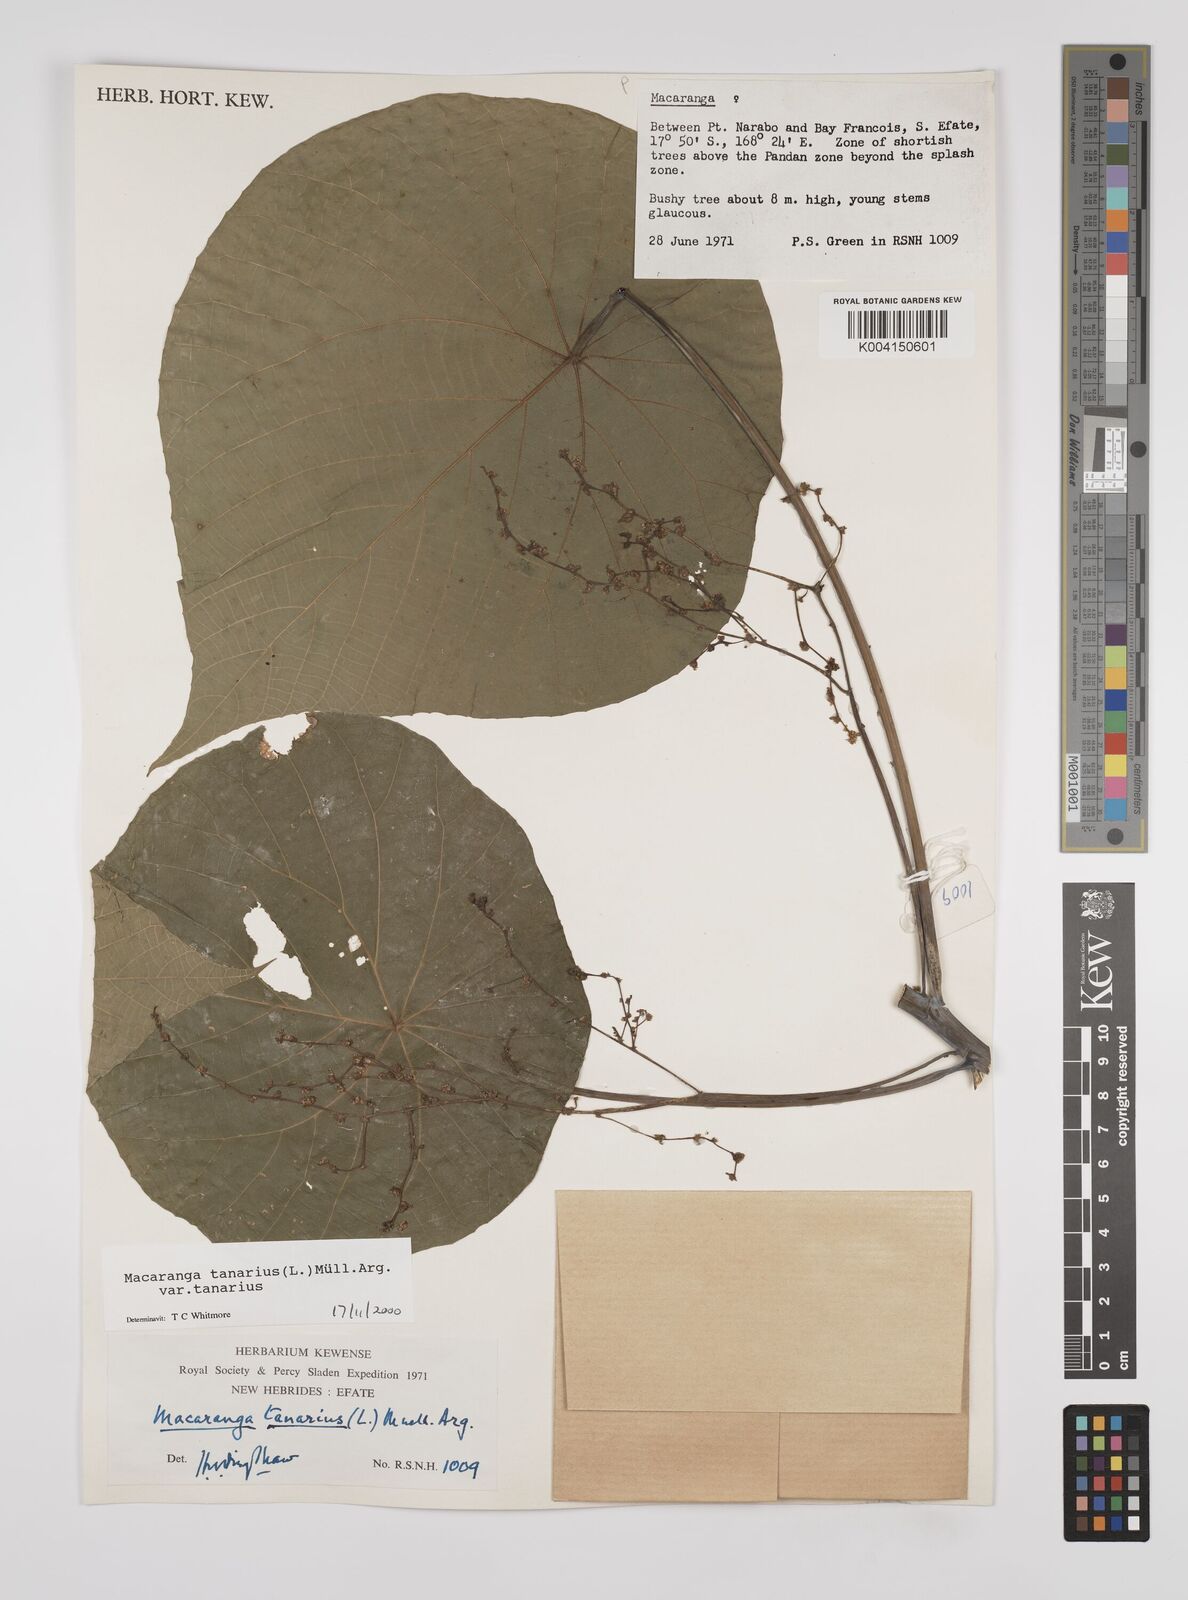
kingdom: Plantae
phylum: Tracheophyta
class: Magnoliopsida
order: Malpighiales
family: Euphorbiaceae
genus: Macaranga
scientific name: Macaranga tanarius
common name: Parasol leaf tree
